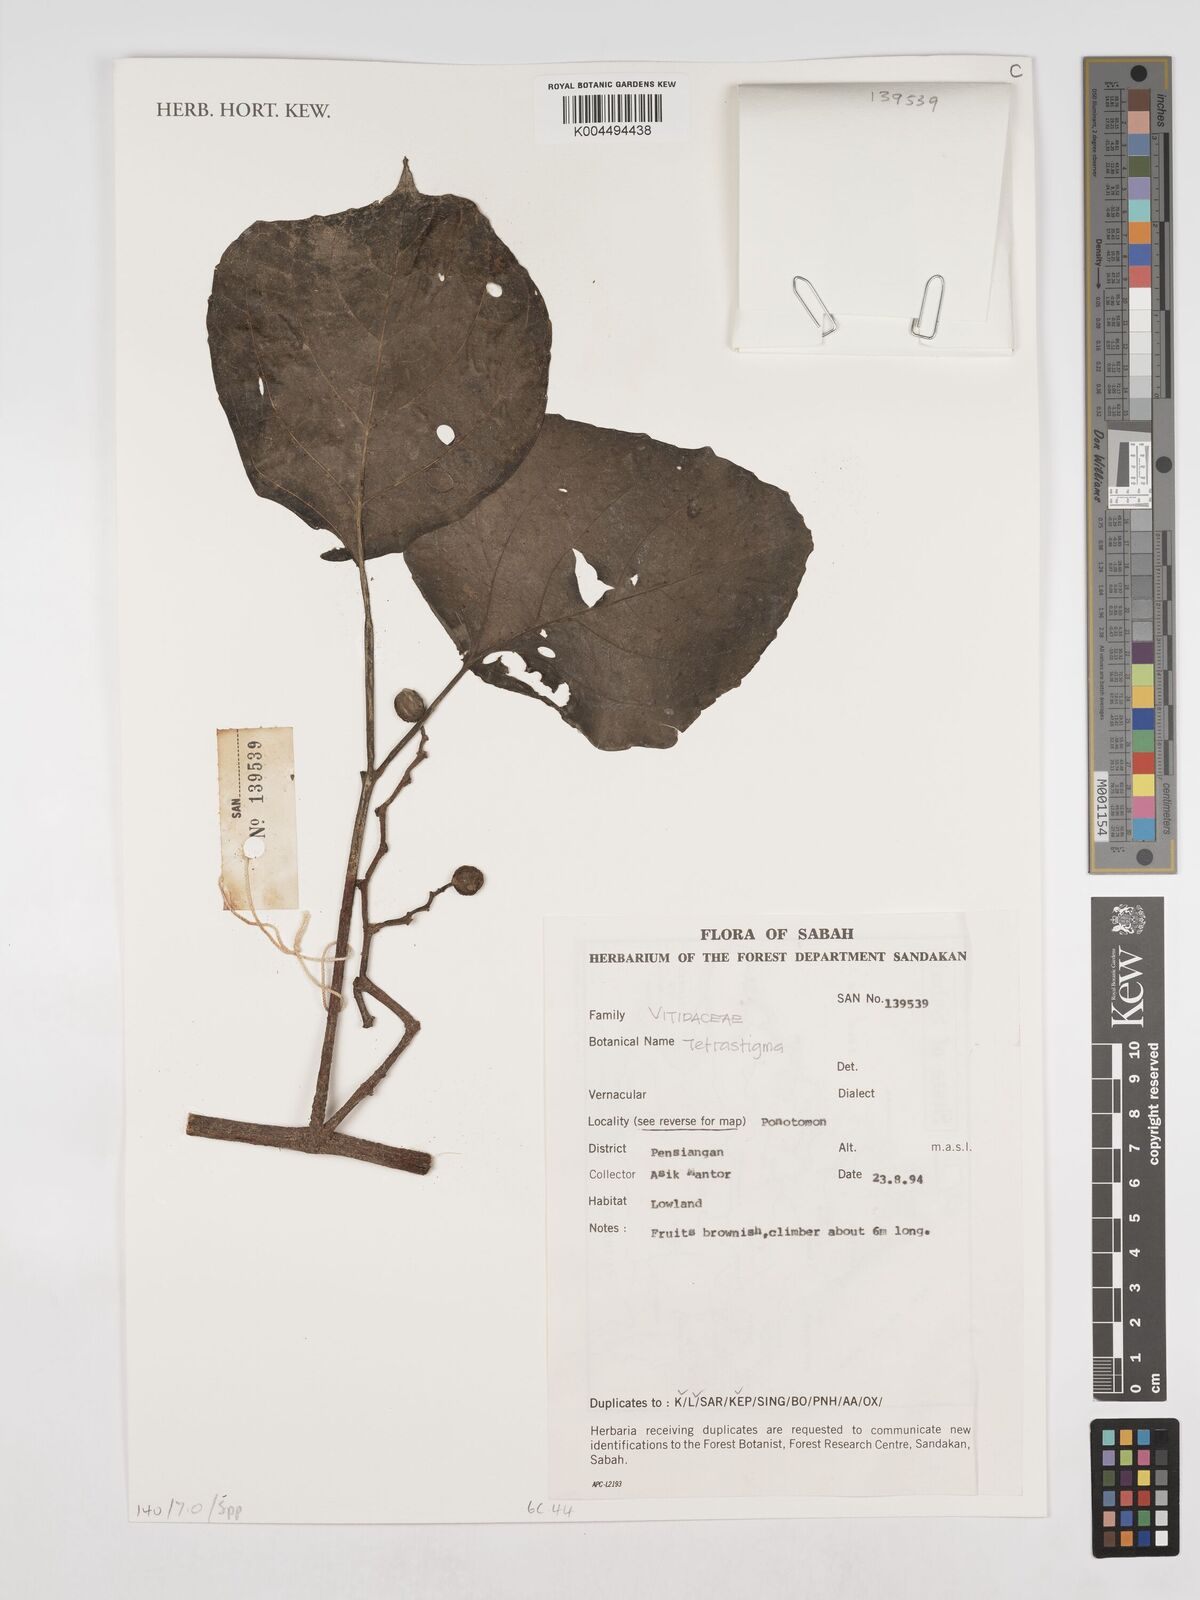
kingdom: Plantae
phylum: Tracheophyta
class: Magnoliopsida
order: Vitales
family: Vitaceae
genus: Tetrastigma
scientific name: Tetrastigma
